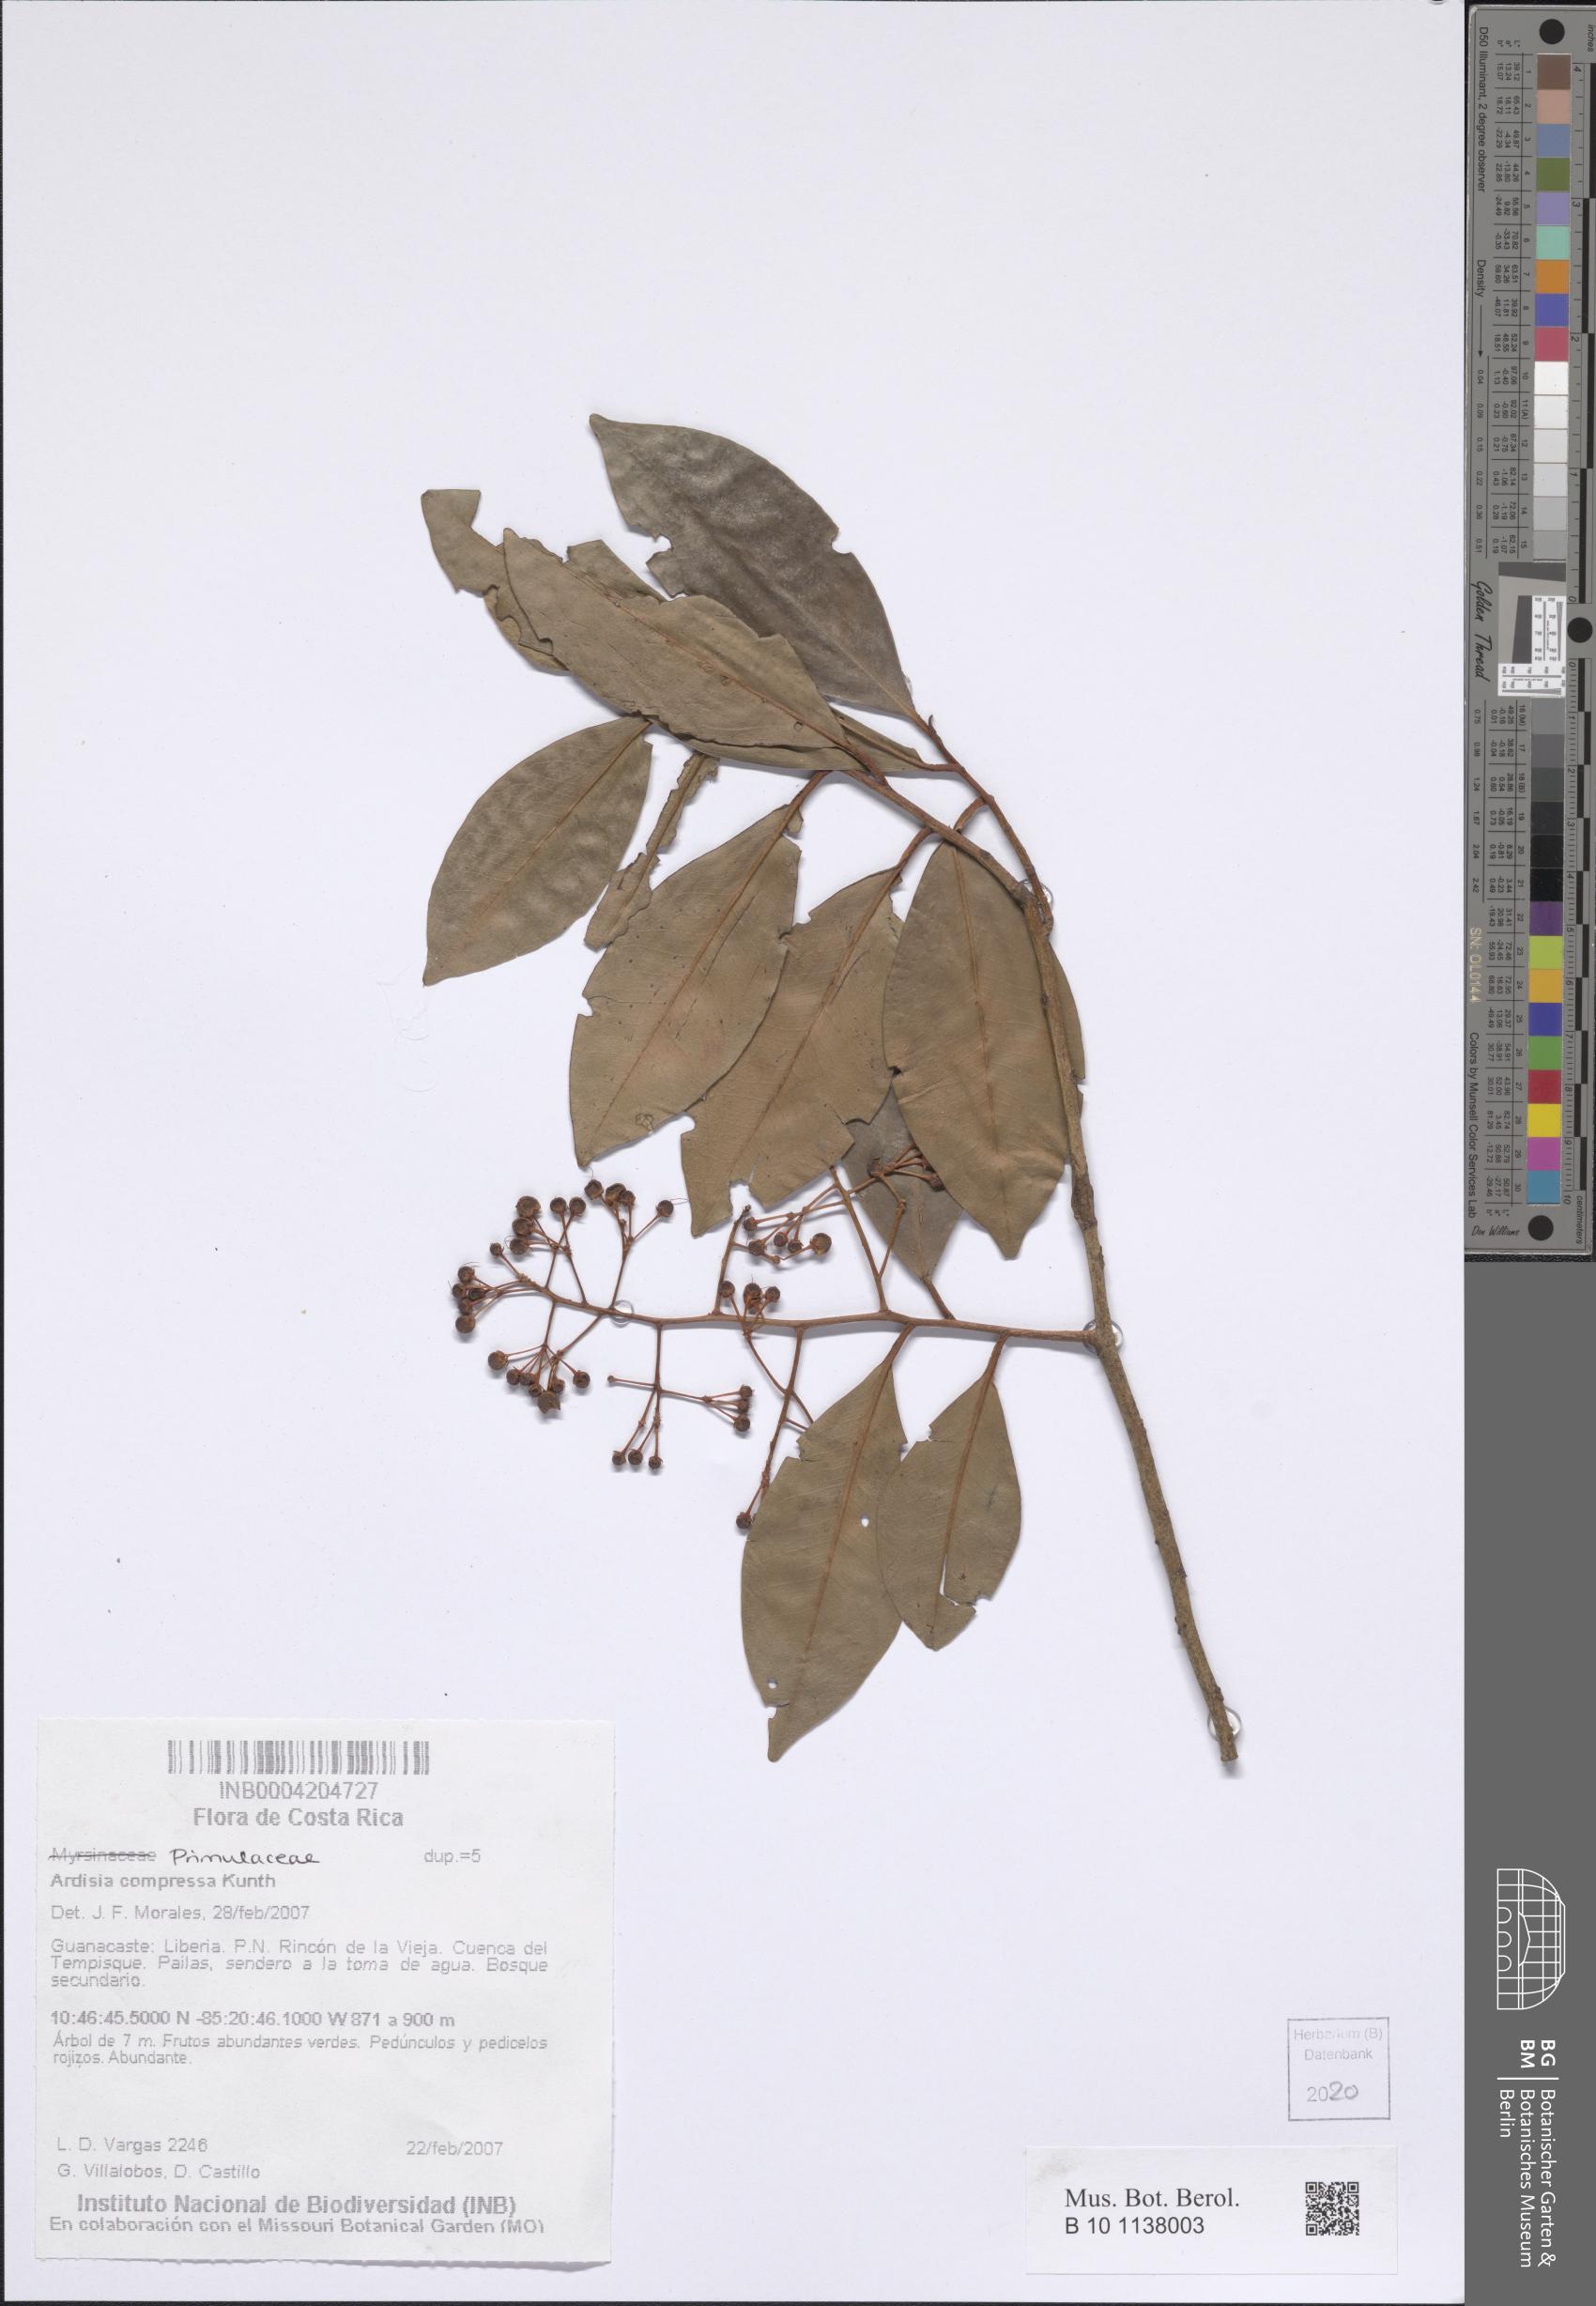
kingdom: Plantae
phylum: Tracheophyta
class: Magnoliopsida
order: Ericales
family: Primulaceae
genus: Ardisia
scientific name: Ardisia compressa
